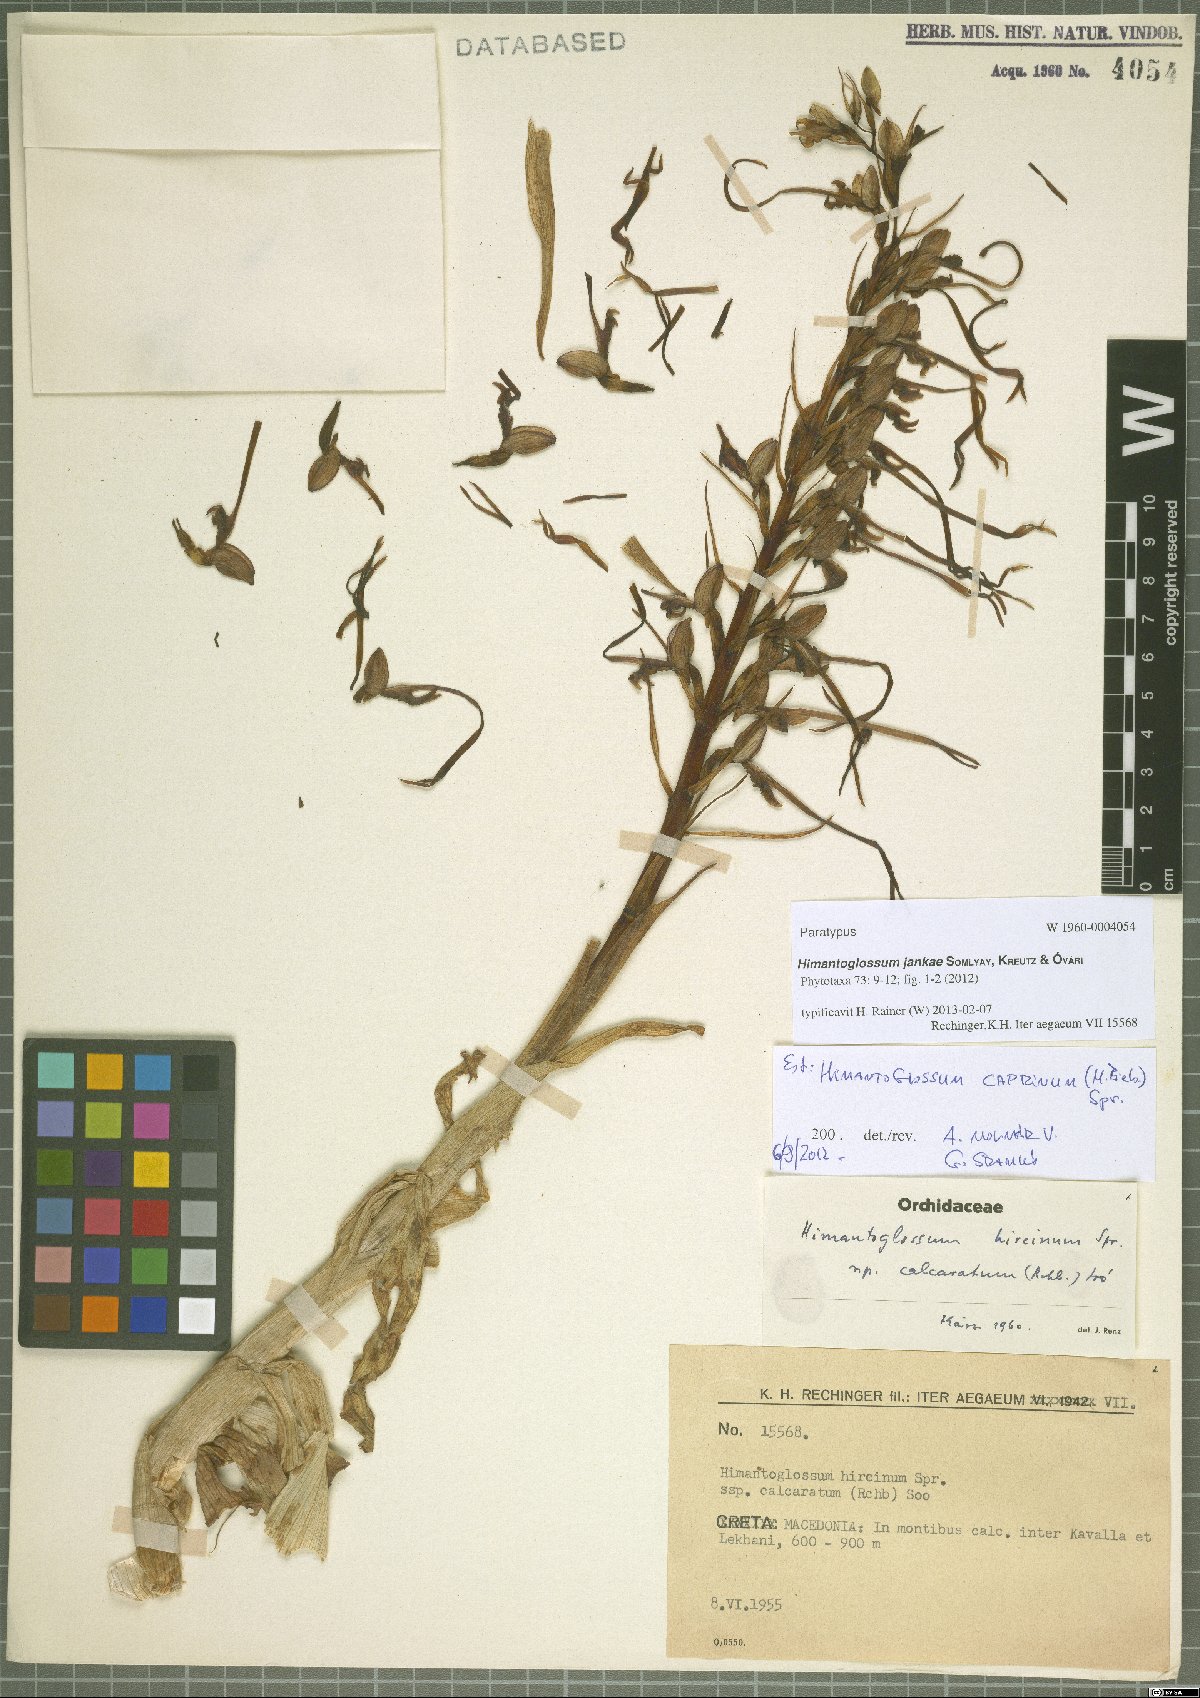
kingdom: Plantae
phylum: Tracheophyta
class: Liliopsida
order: Asparagales
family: Orchidaceae
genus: Himantoglossum
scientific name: Himantoglossum calcaratum
